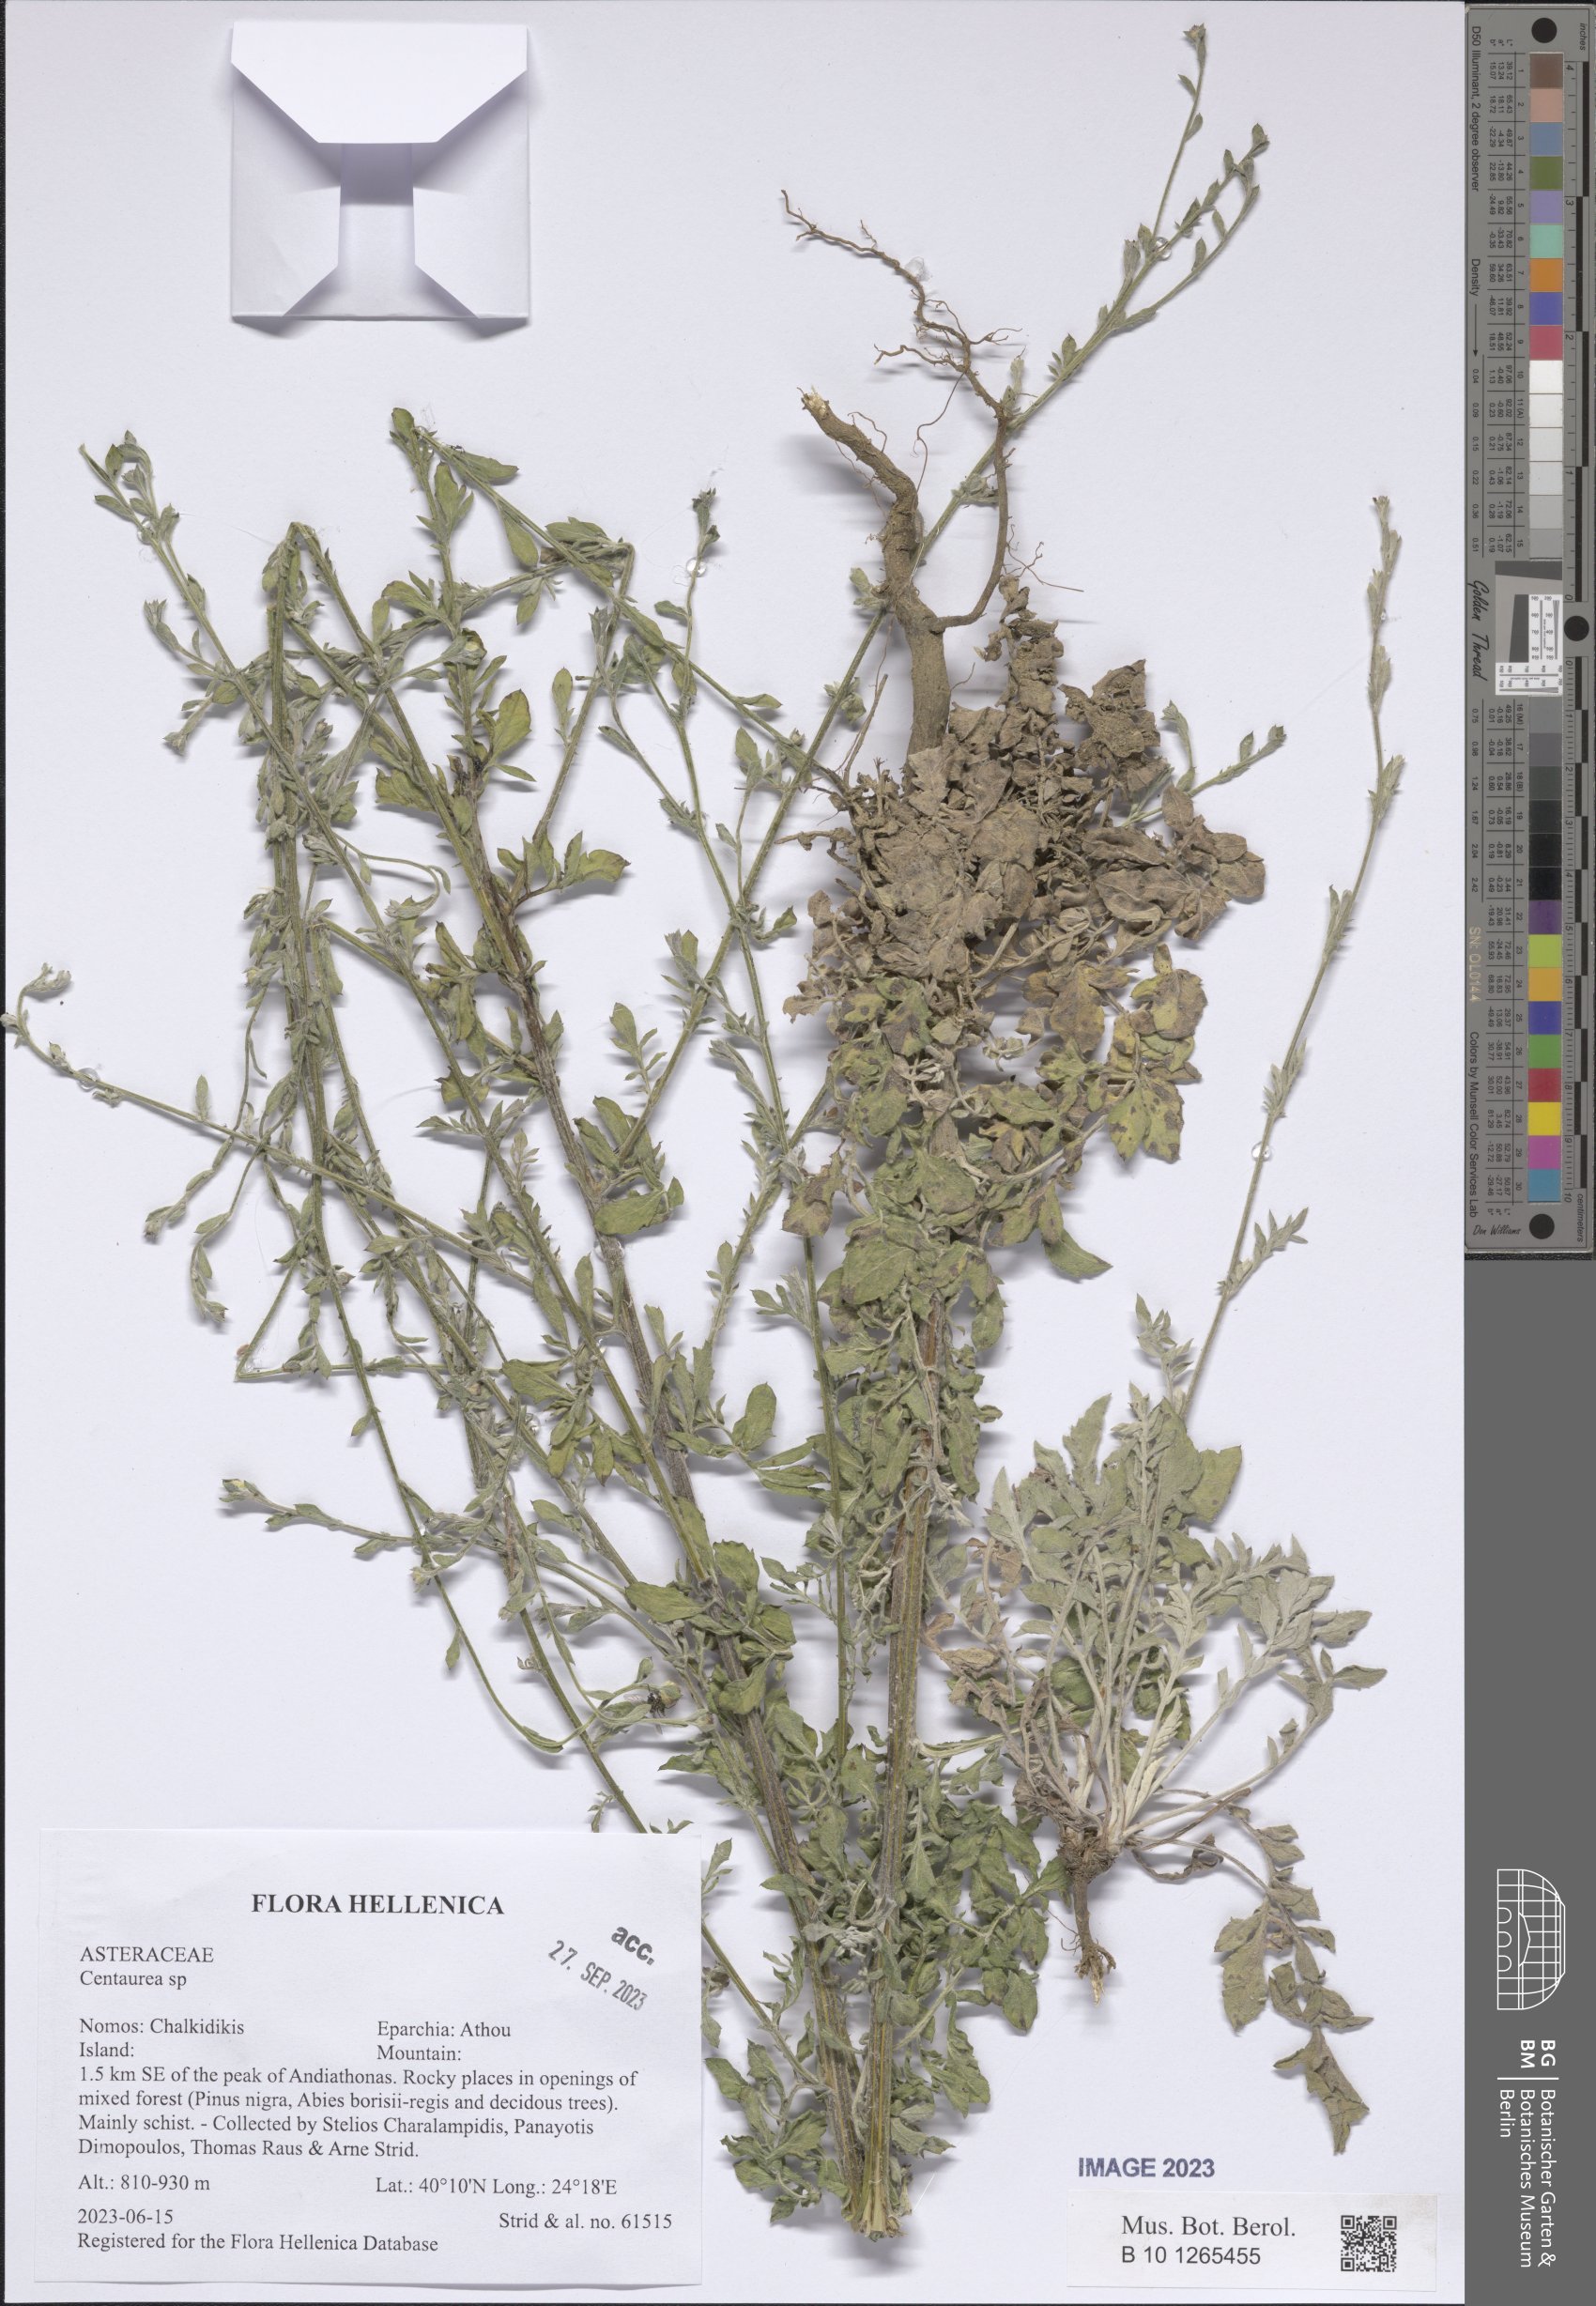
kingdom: Plantae
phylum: Tracheophyta
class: Magnoliopsida
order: Asterales
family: Asteraceae
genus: Centaurea
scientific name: Centaurea
